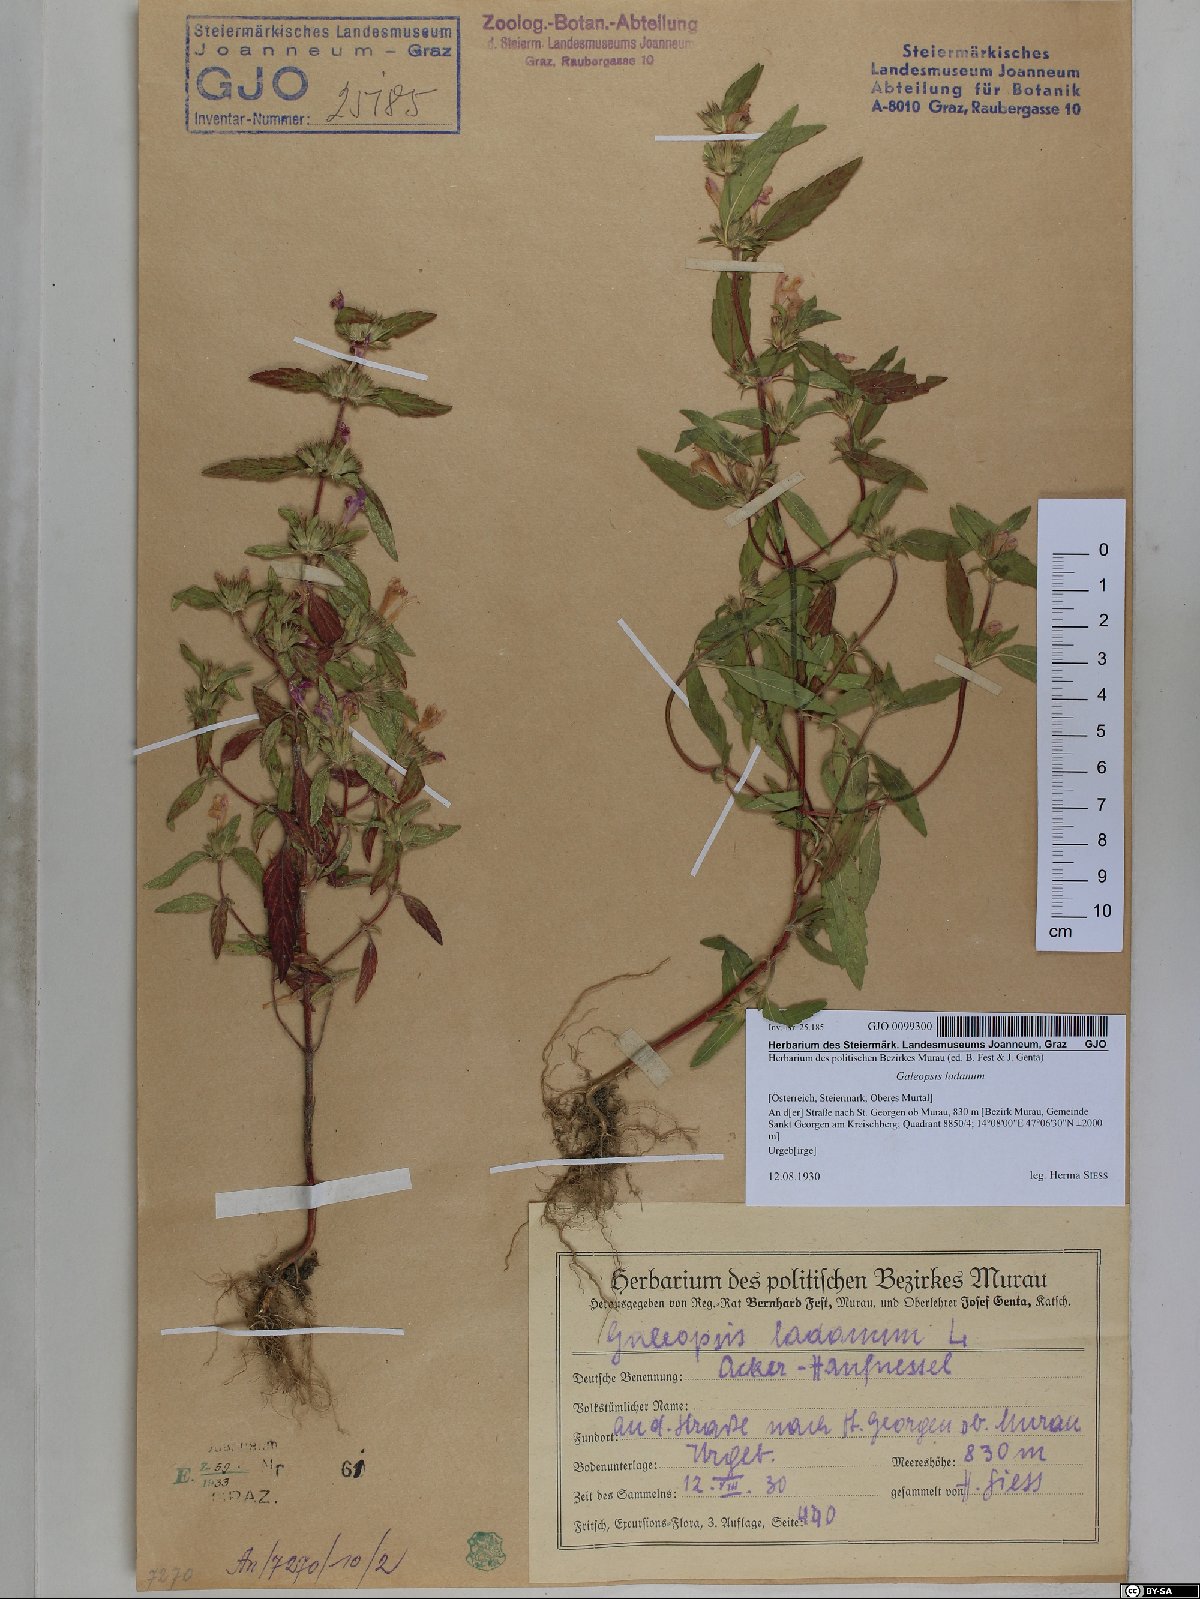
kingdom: Plantae
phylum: Tracheophyta
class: Magnoliopsida
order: Lamiales
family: Lamiaceae
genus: Galeopsis
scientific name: Galeopsis ladanum
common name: Broad-leaved hemp-nettle
